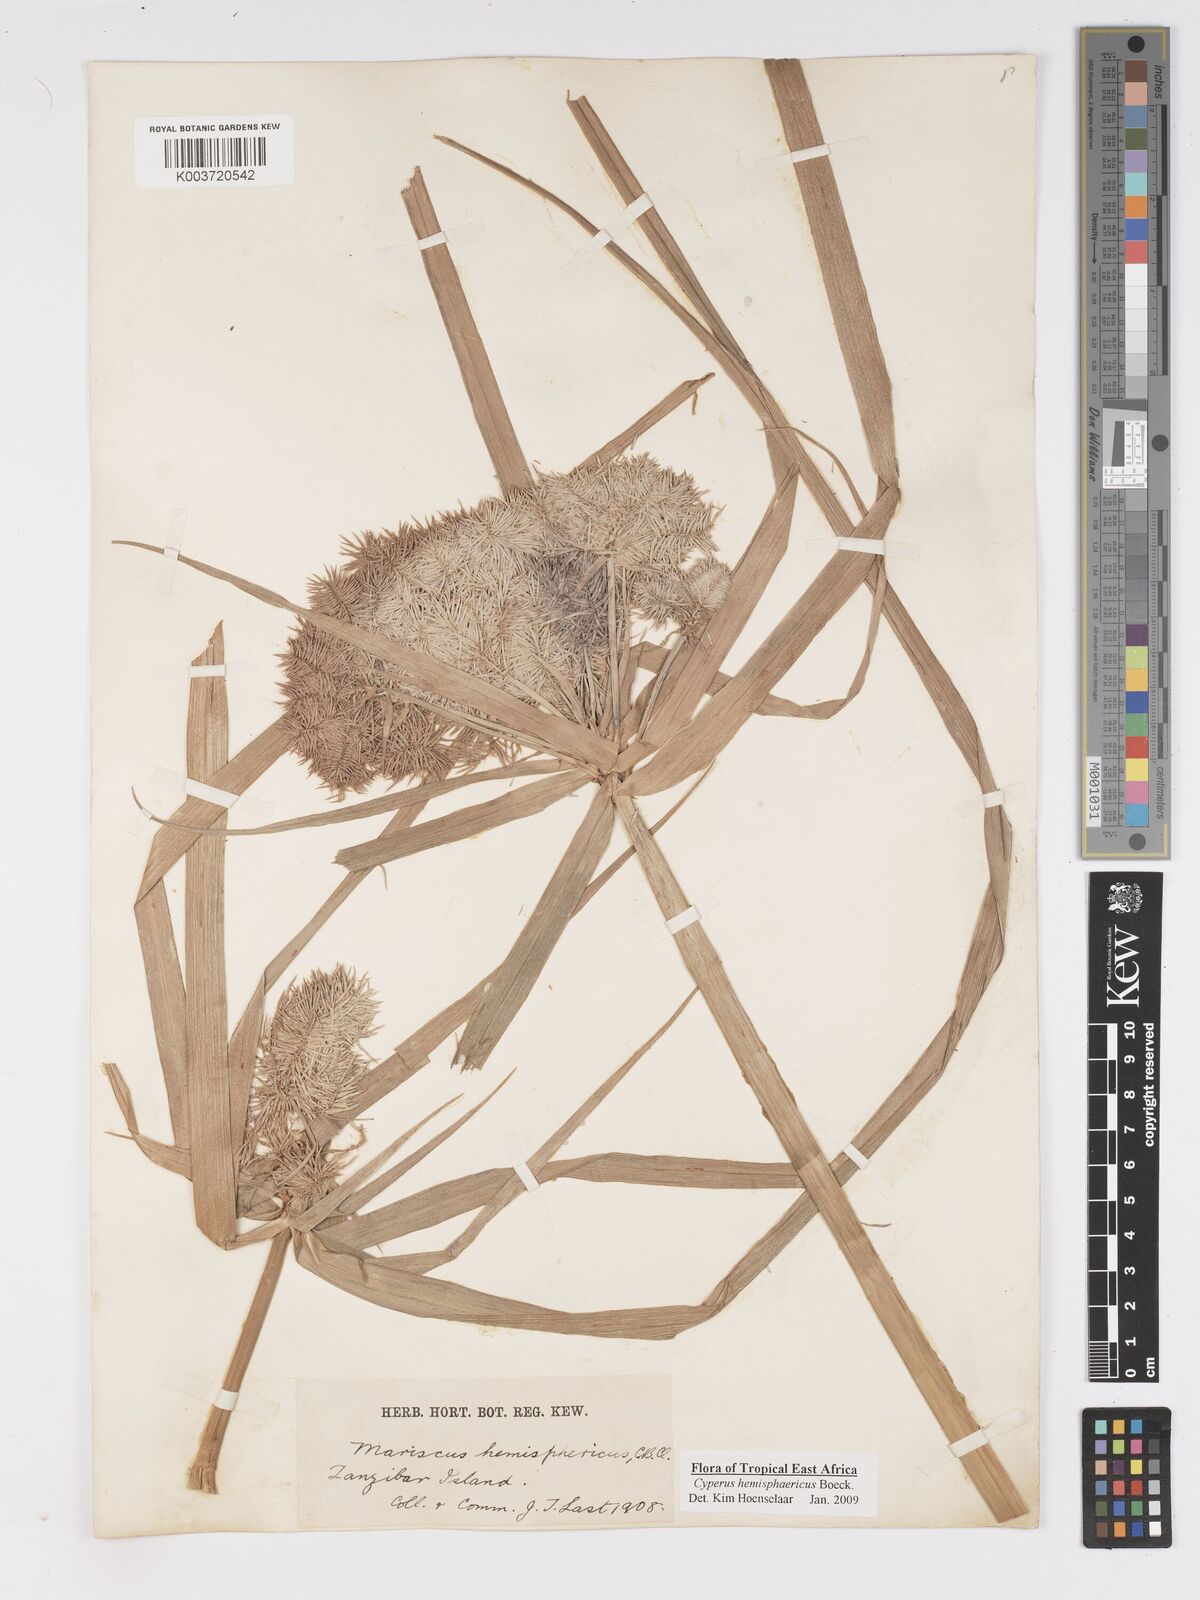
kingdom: Plantae
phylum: Tracheophyta
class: Liliopsida
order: Poales
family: Cyperaceae
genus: Cyperus
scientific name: Cyperus hemisphaericus
